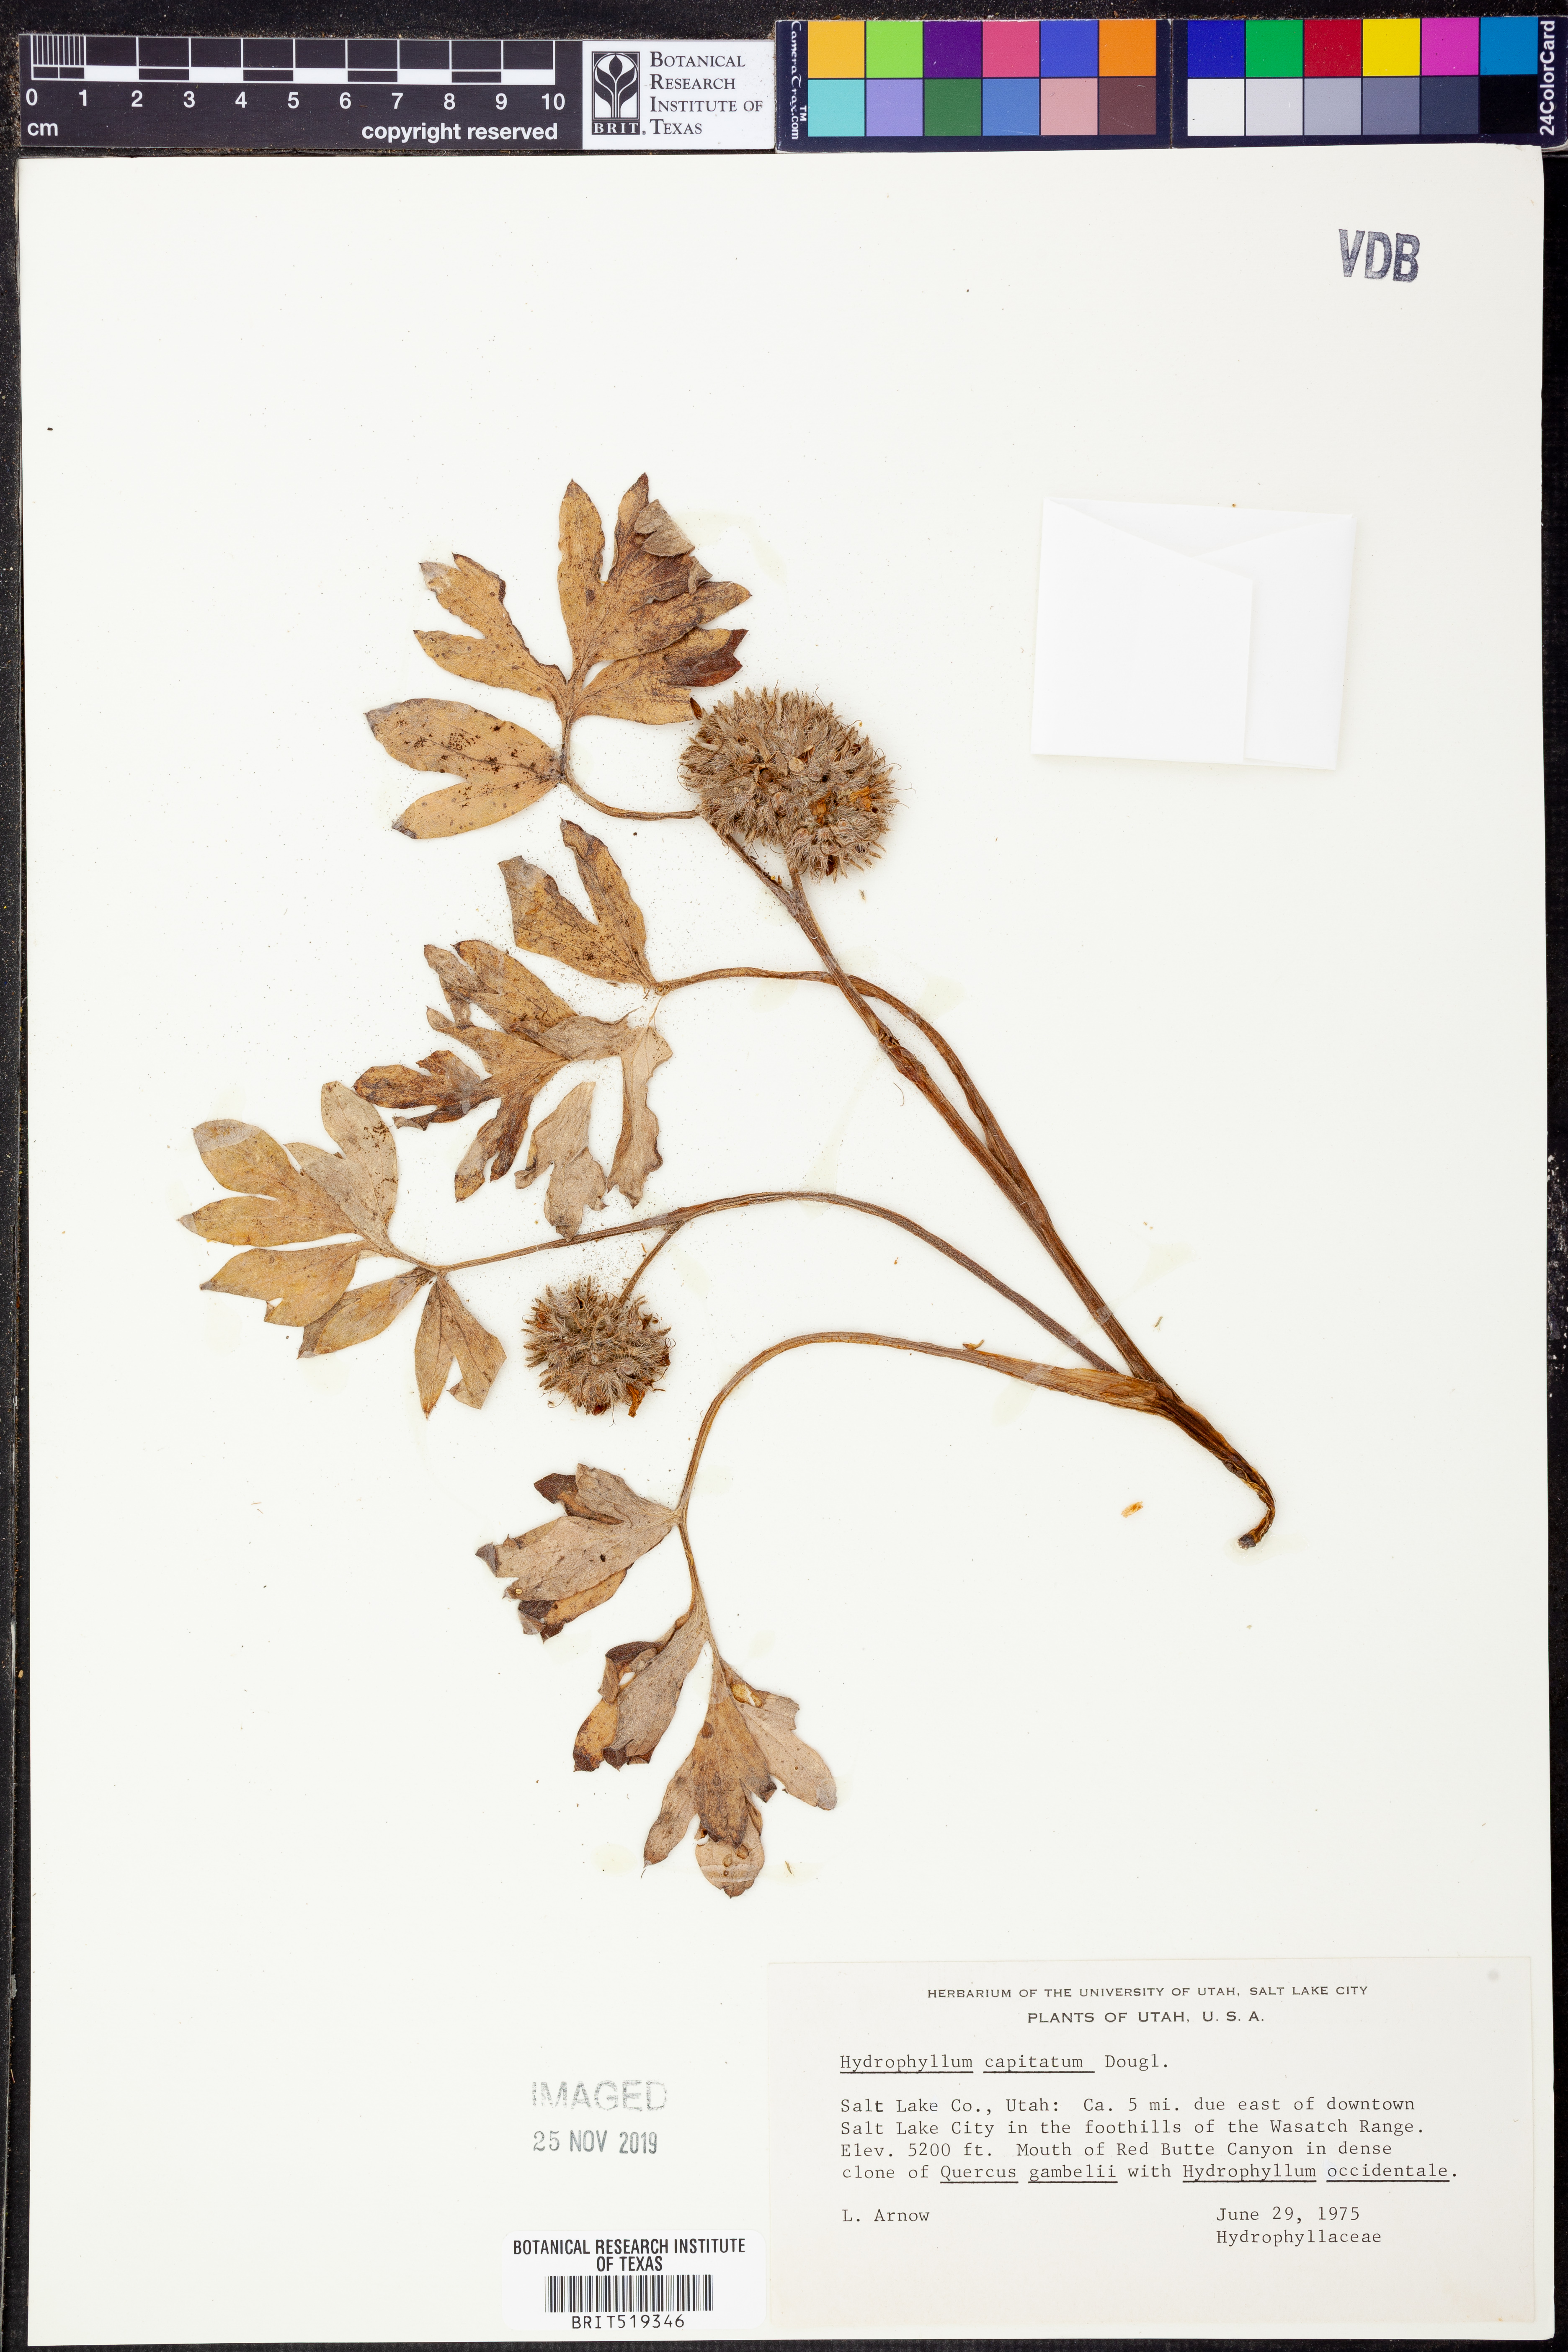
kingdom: Plantae
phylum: Tracheophyta
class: Magnoliopsida
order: Boraginales
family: Hydrophyllaceae
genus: Hydrophyllum
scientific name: Hydrophyllum capitatum
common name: Woollen-breeches
